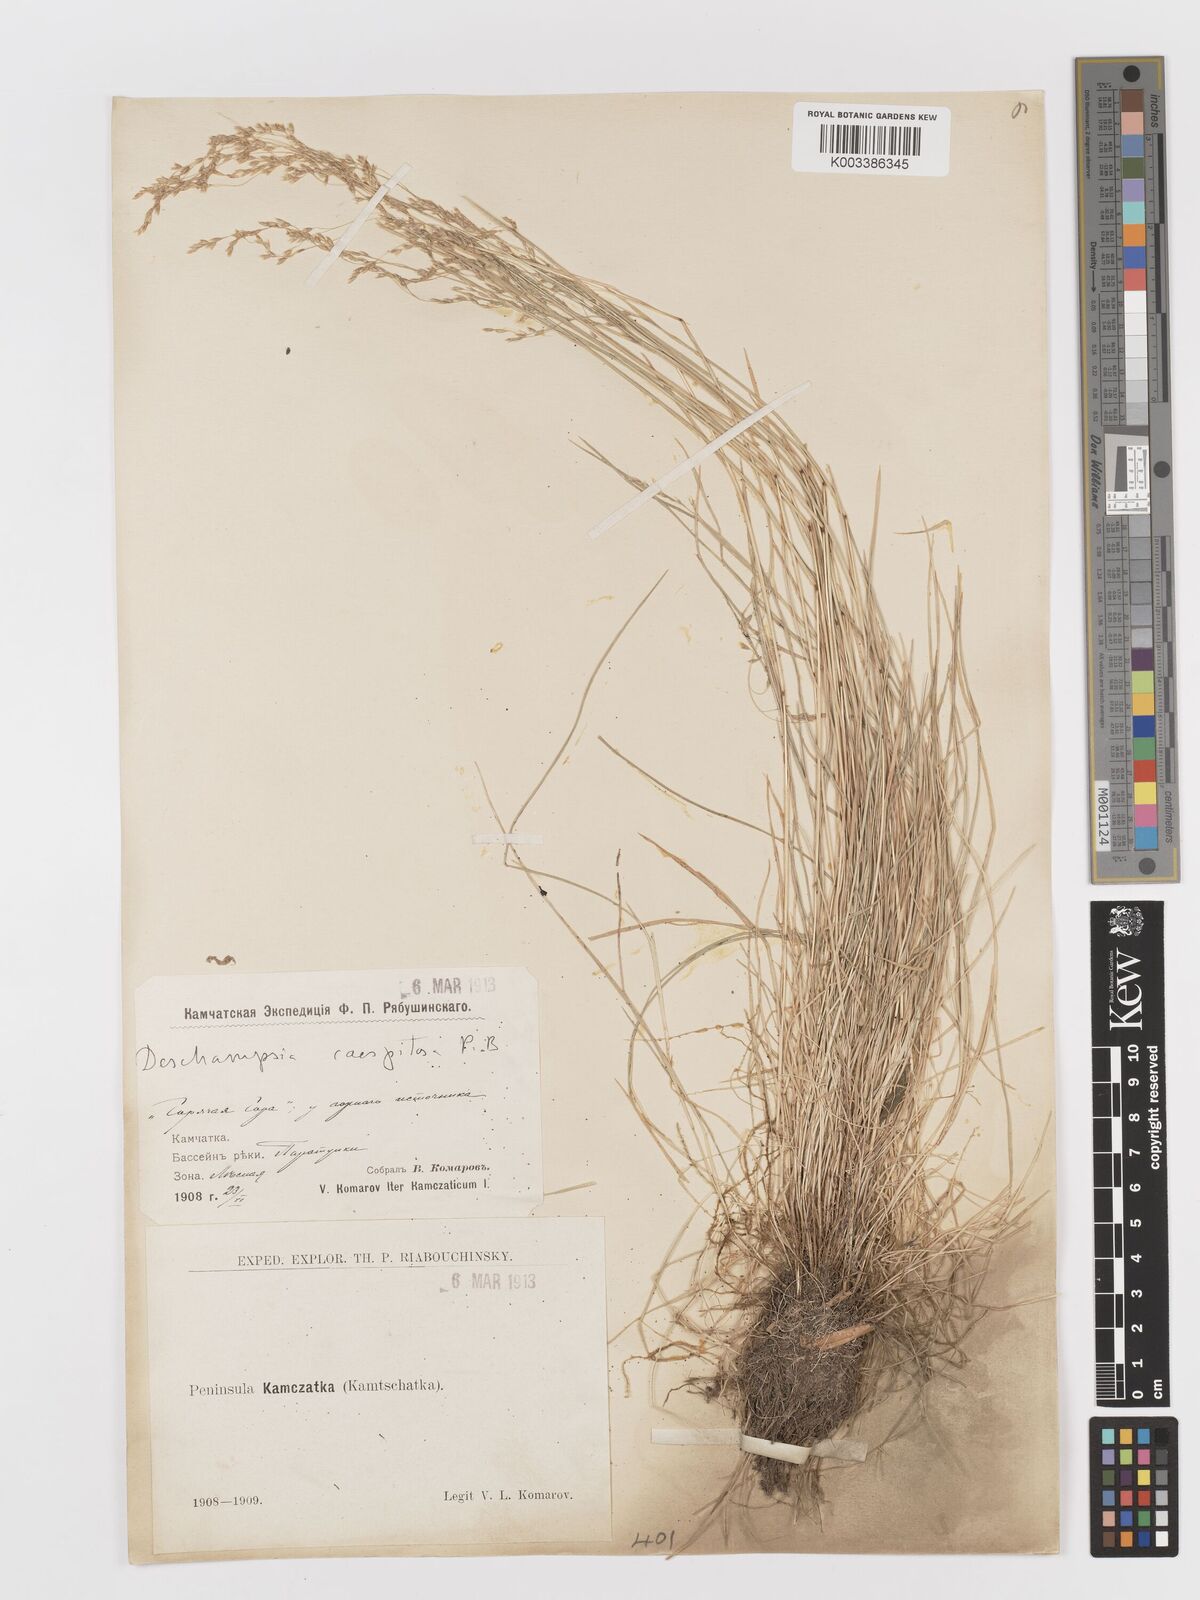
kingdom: Plantae
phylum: Tracheophyta
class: Liliopsida
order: Poales
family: Poaceae
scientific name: Poaceae
